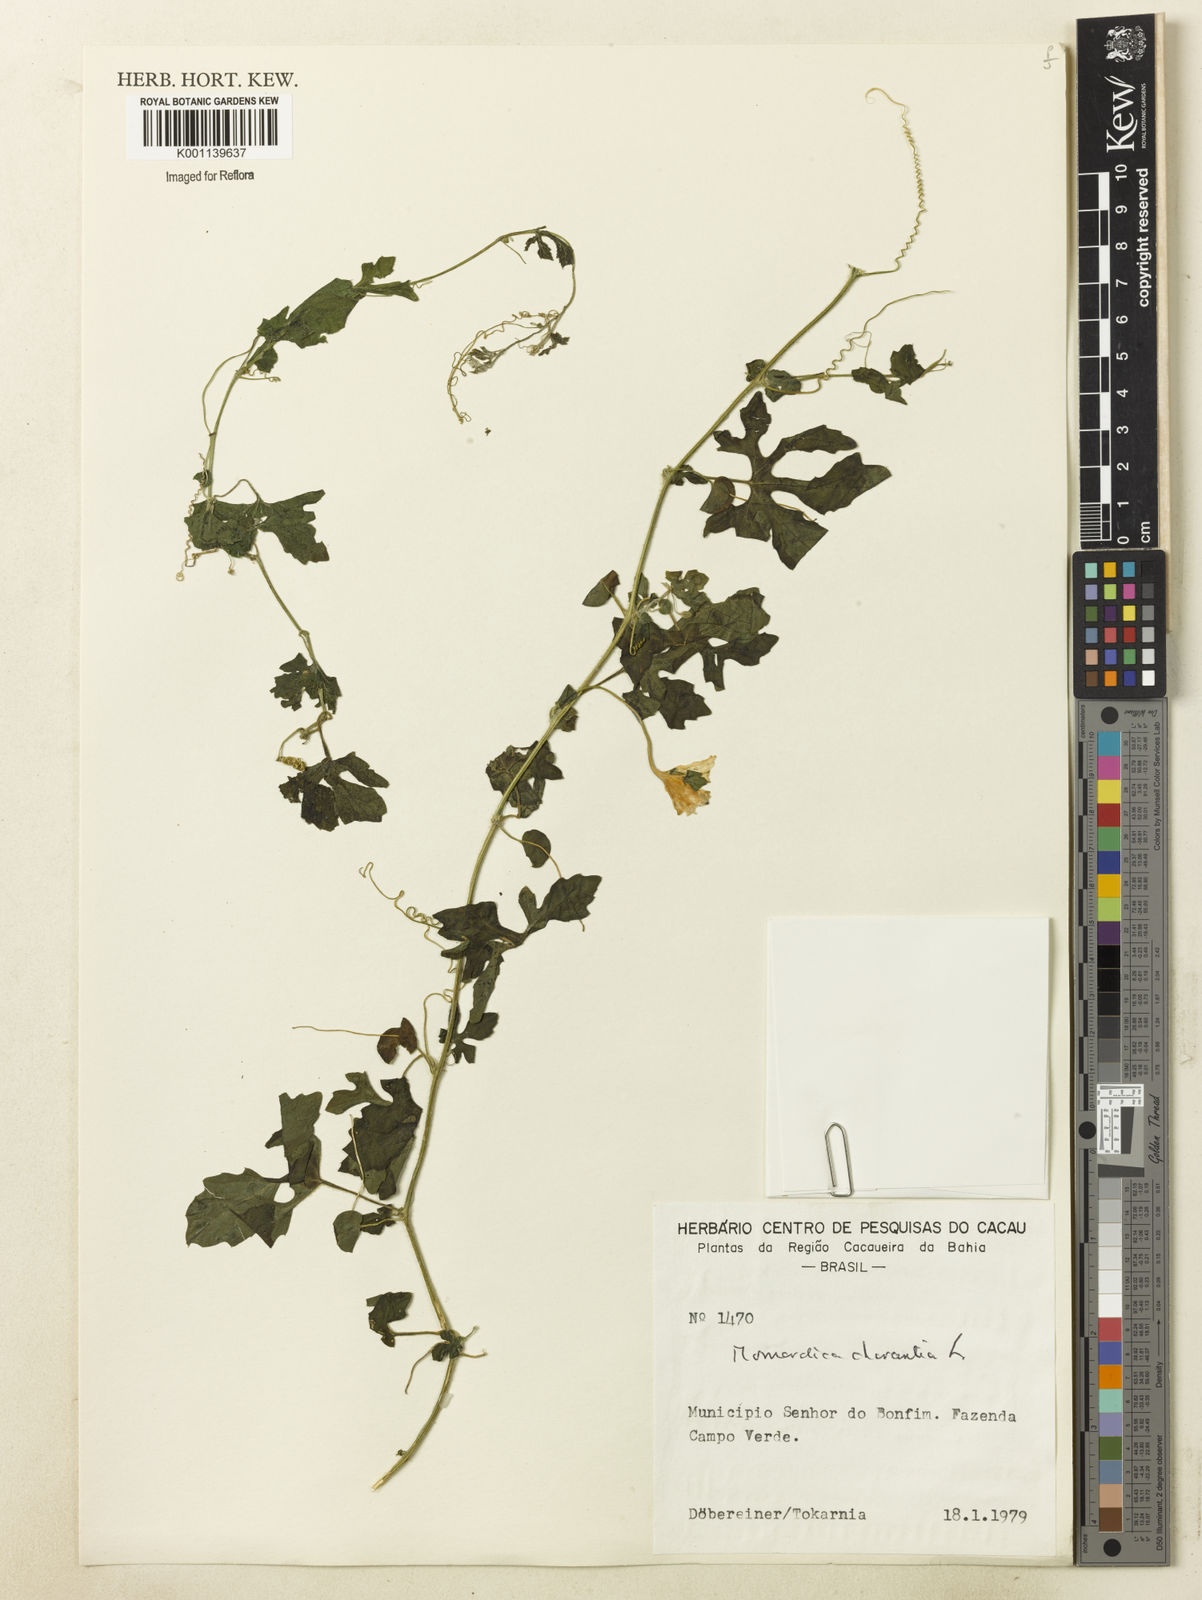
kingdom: Plantae
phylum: Tracheophyta
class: Magnoliopsida
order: Cucurbitales
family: Cucurbitaceae
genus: Momordica
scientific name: Momordica charantia
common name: Balsampear
